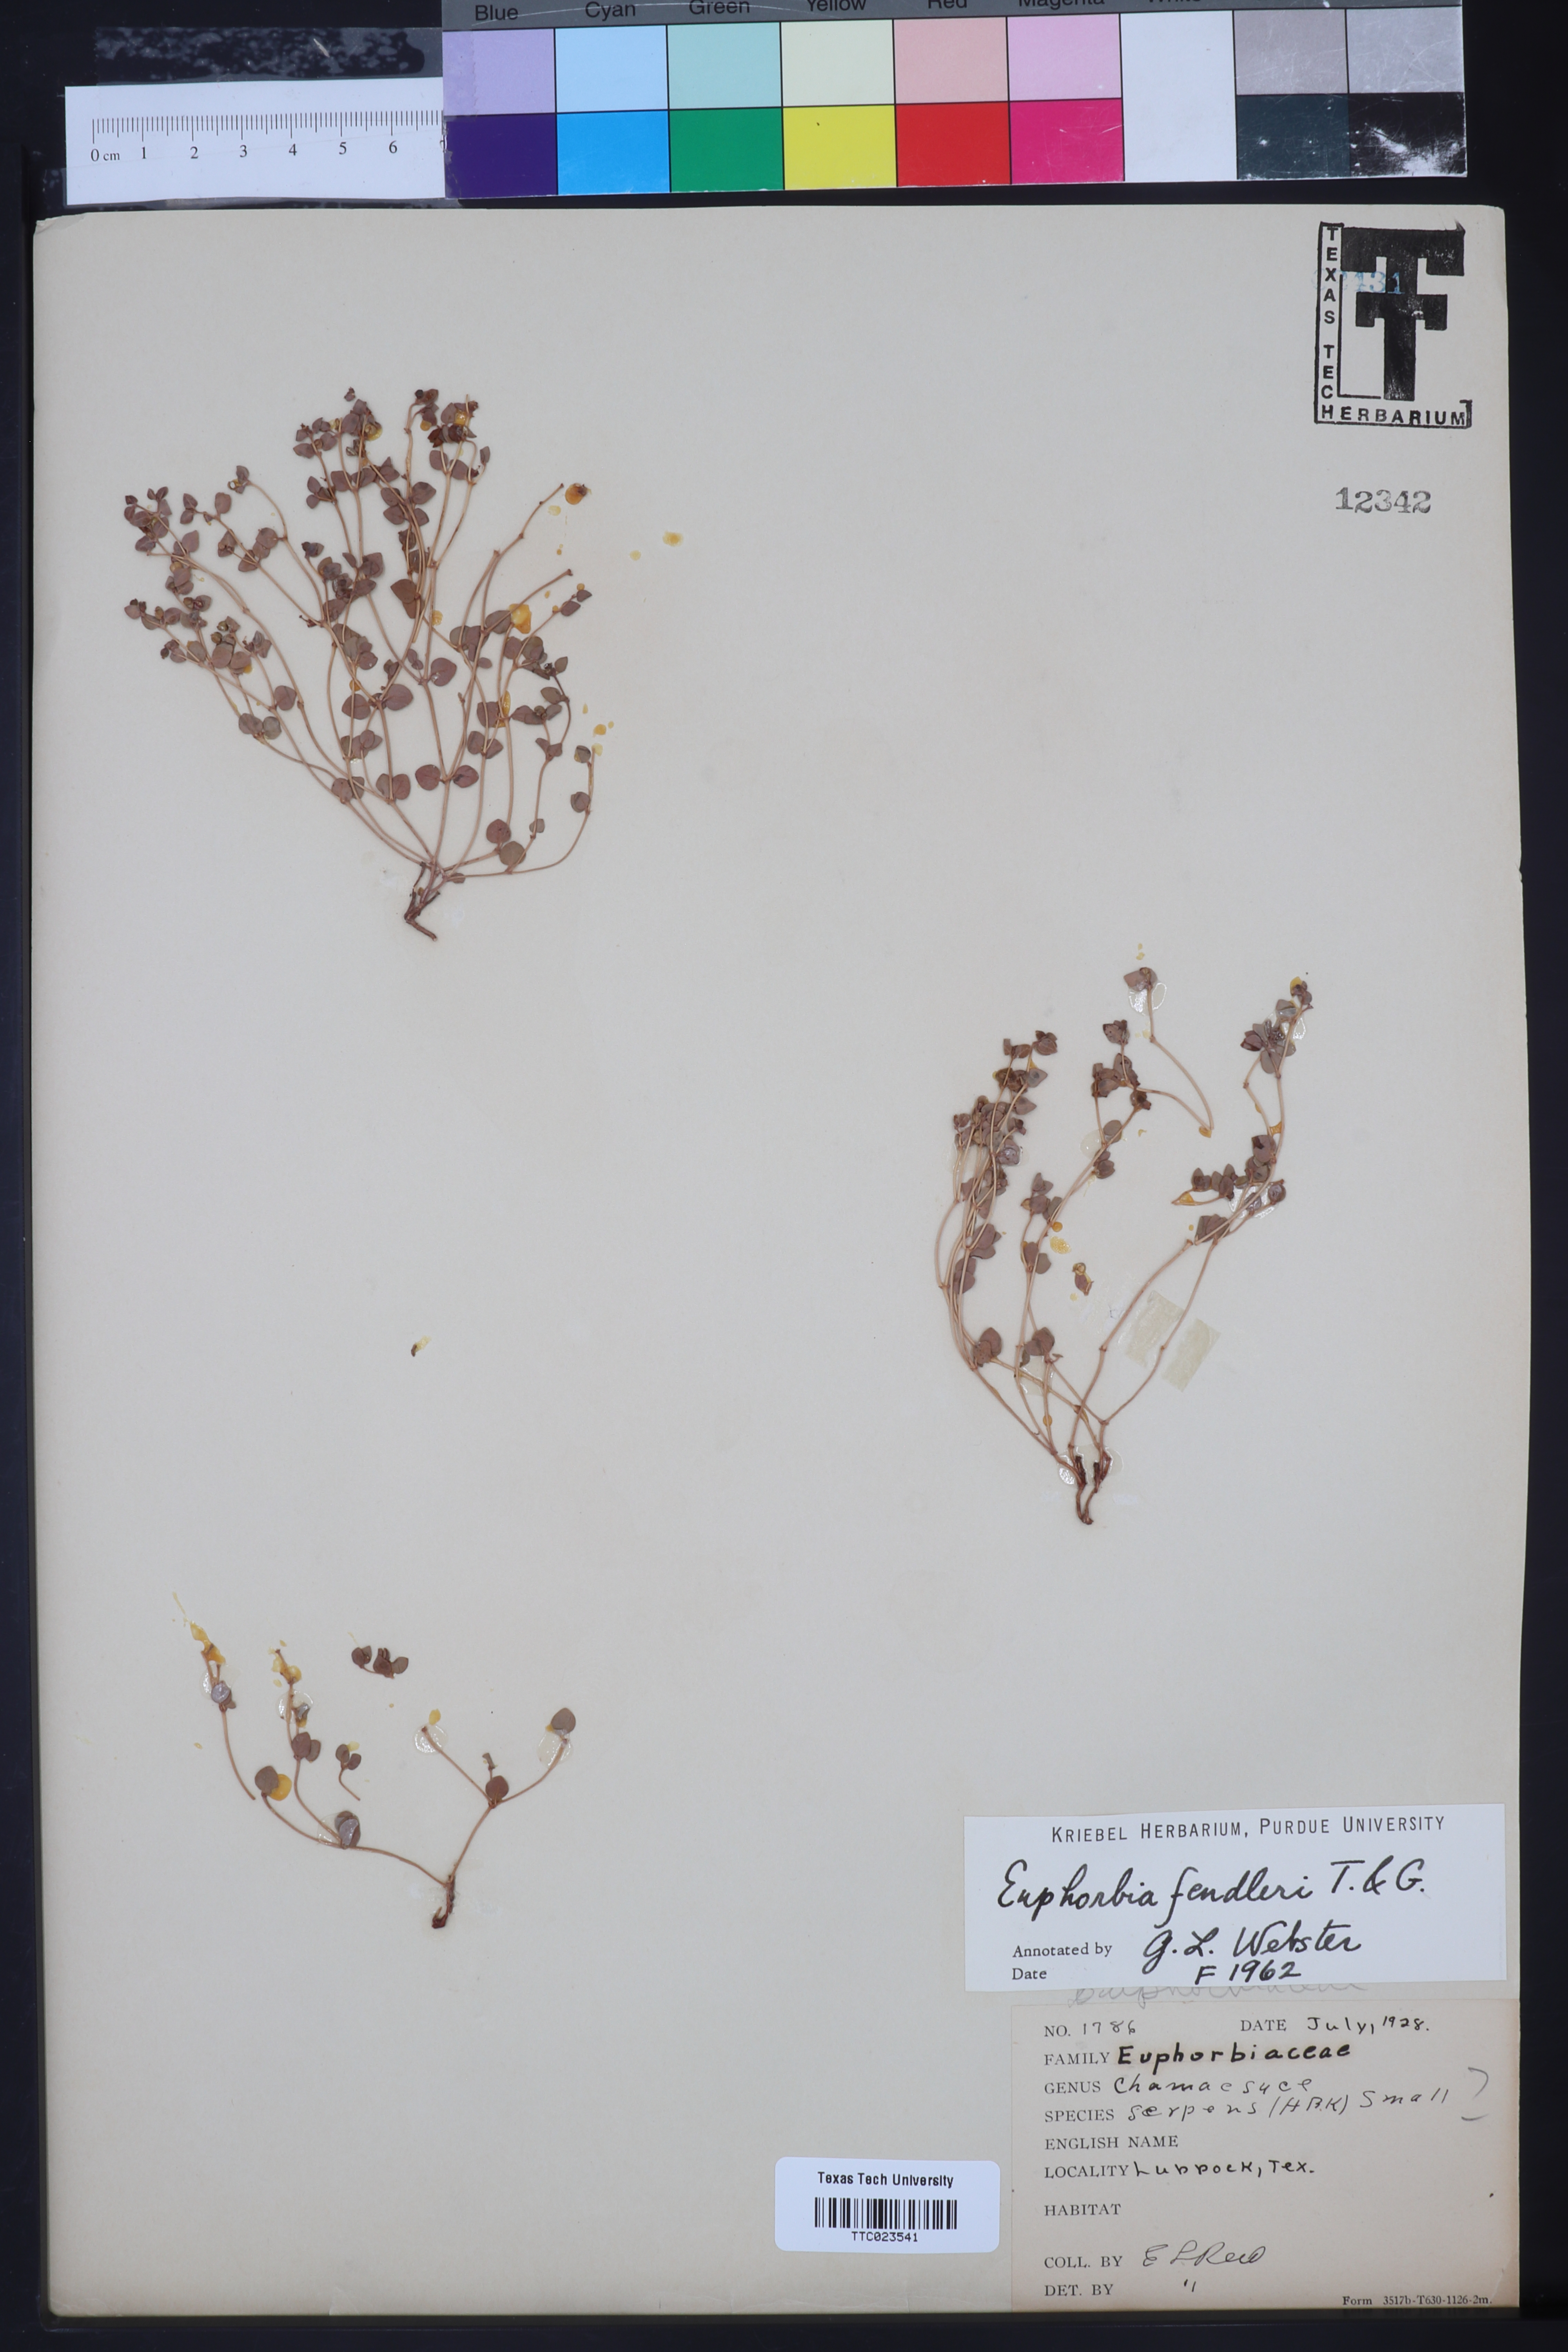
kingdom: Plantae
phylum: Tracheophyta
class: Magnoliopsida
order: Malpighiales
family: Euphorbiaceae
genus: Euphorbia
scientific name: Euphorbia fendleri
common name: Fendler's euphorbia
